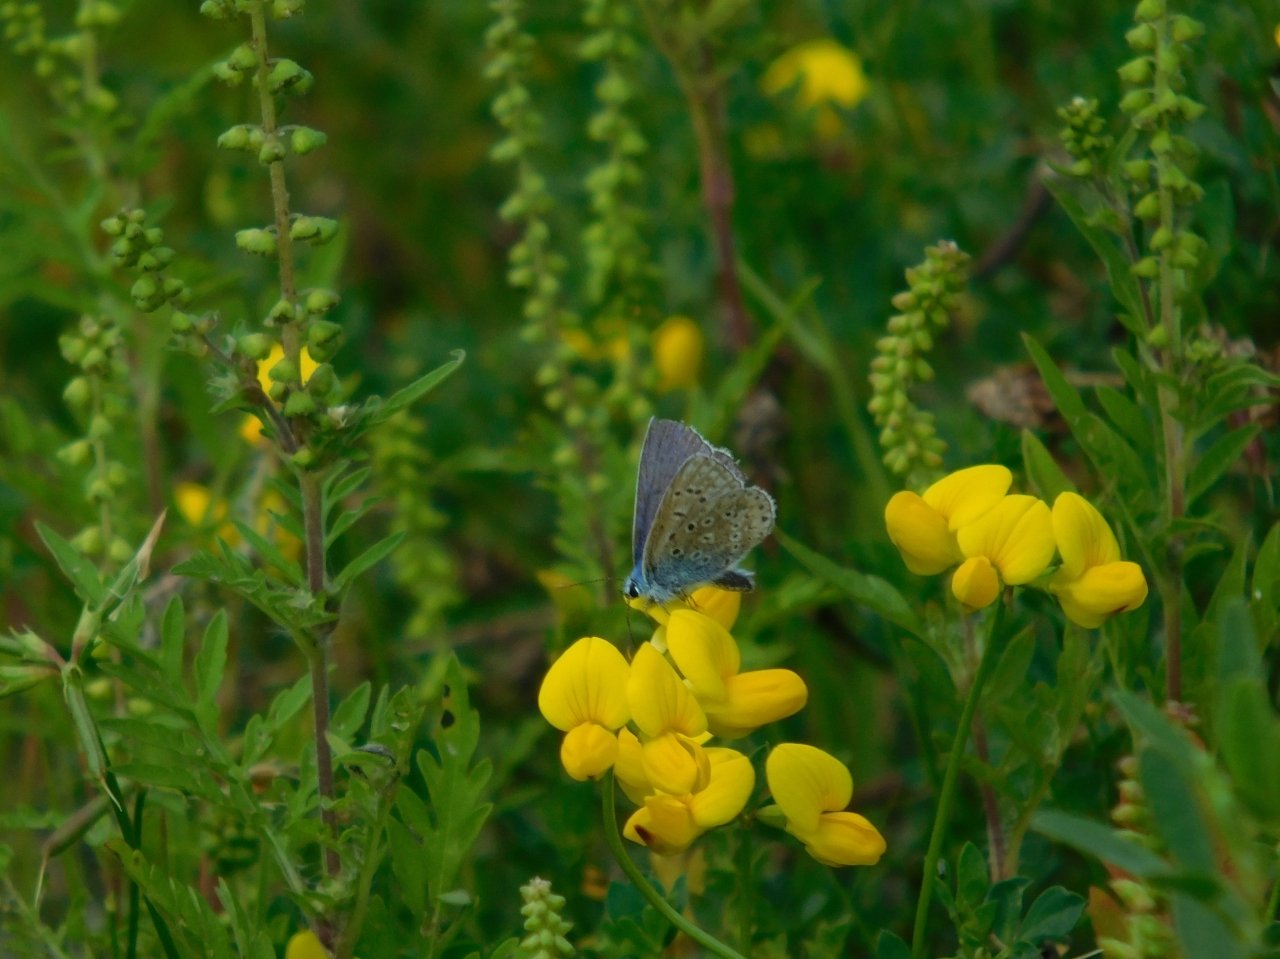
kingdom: Animalia
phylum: Arthropoda
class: Insecta
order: Lepidoptera
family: Lycaenidae
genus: Polyommatus
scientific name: Polyommatus icarus
